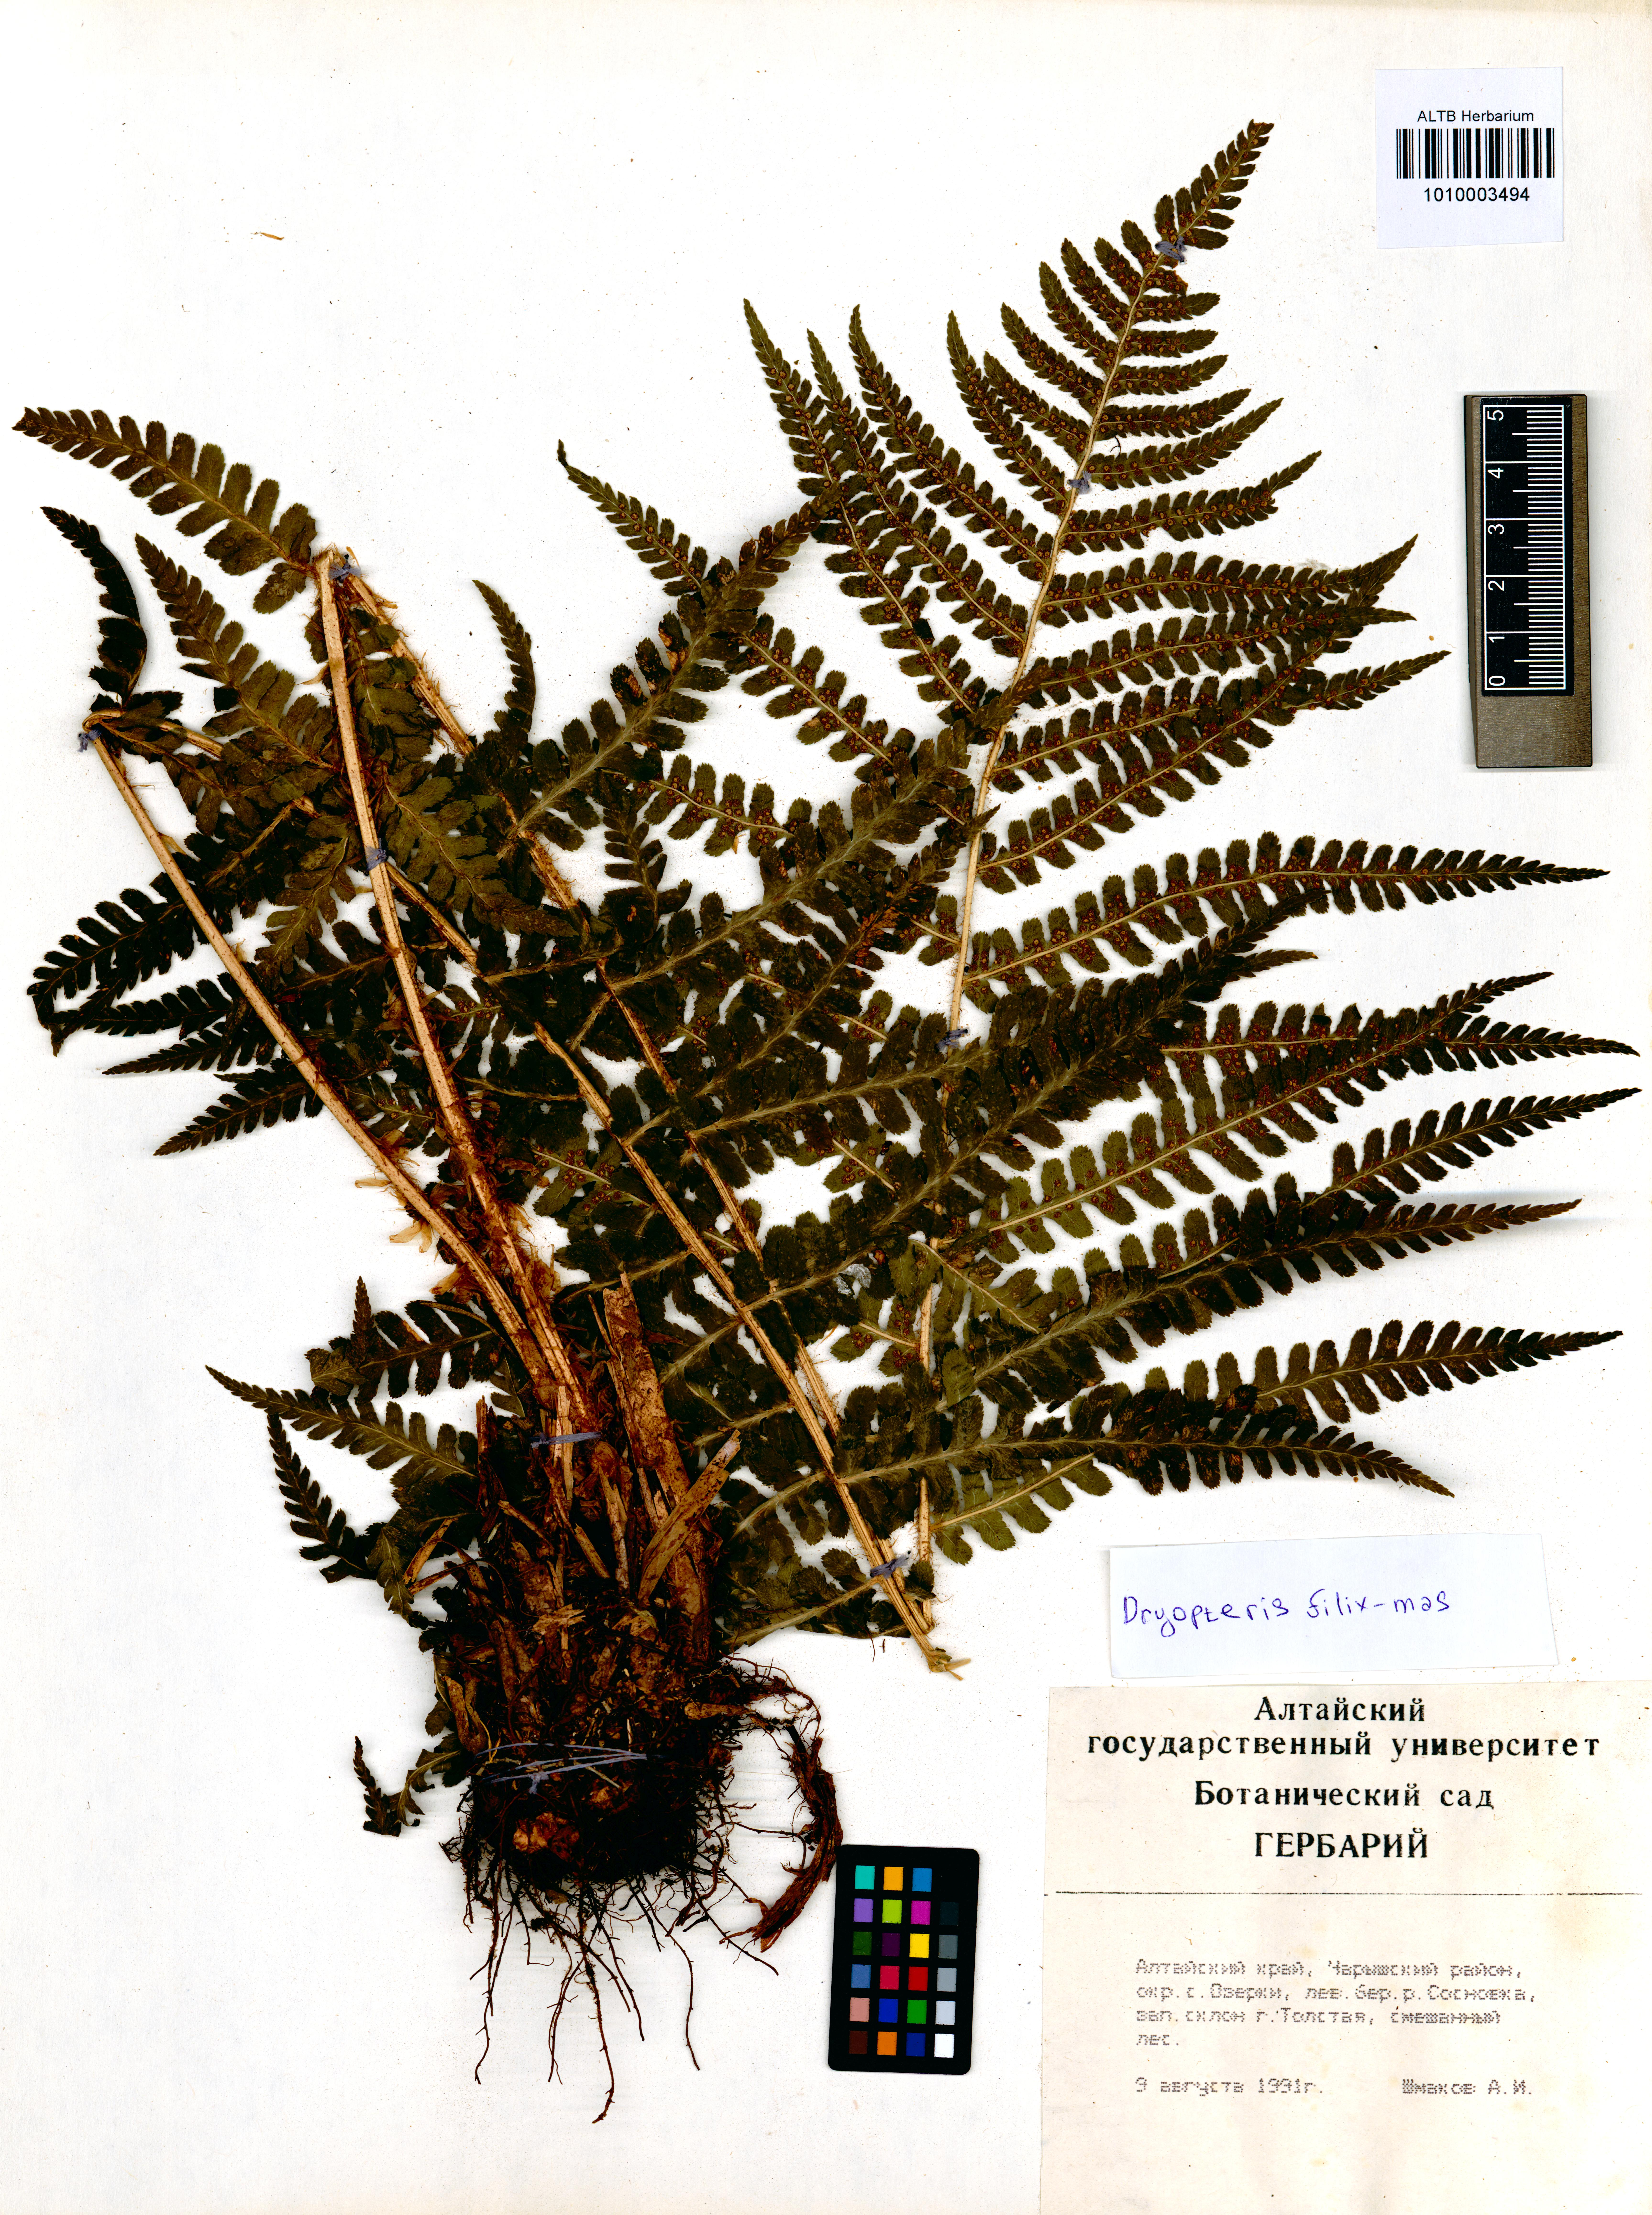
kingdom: Plantae
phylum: Tracheophyta
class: Polypodiopsida
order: Polypodiales
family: Dryopteridaceae
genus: Dryopteris
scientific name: Dryopteris filix-mas
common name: Male fern
